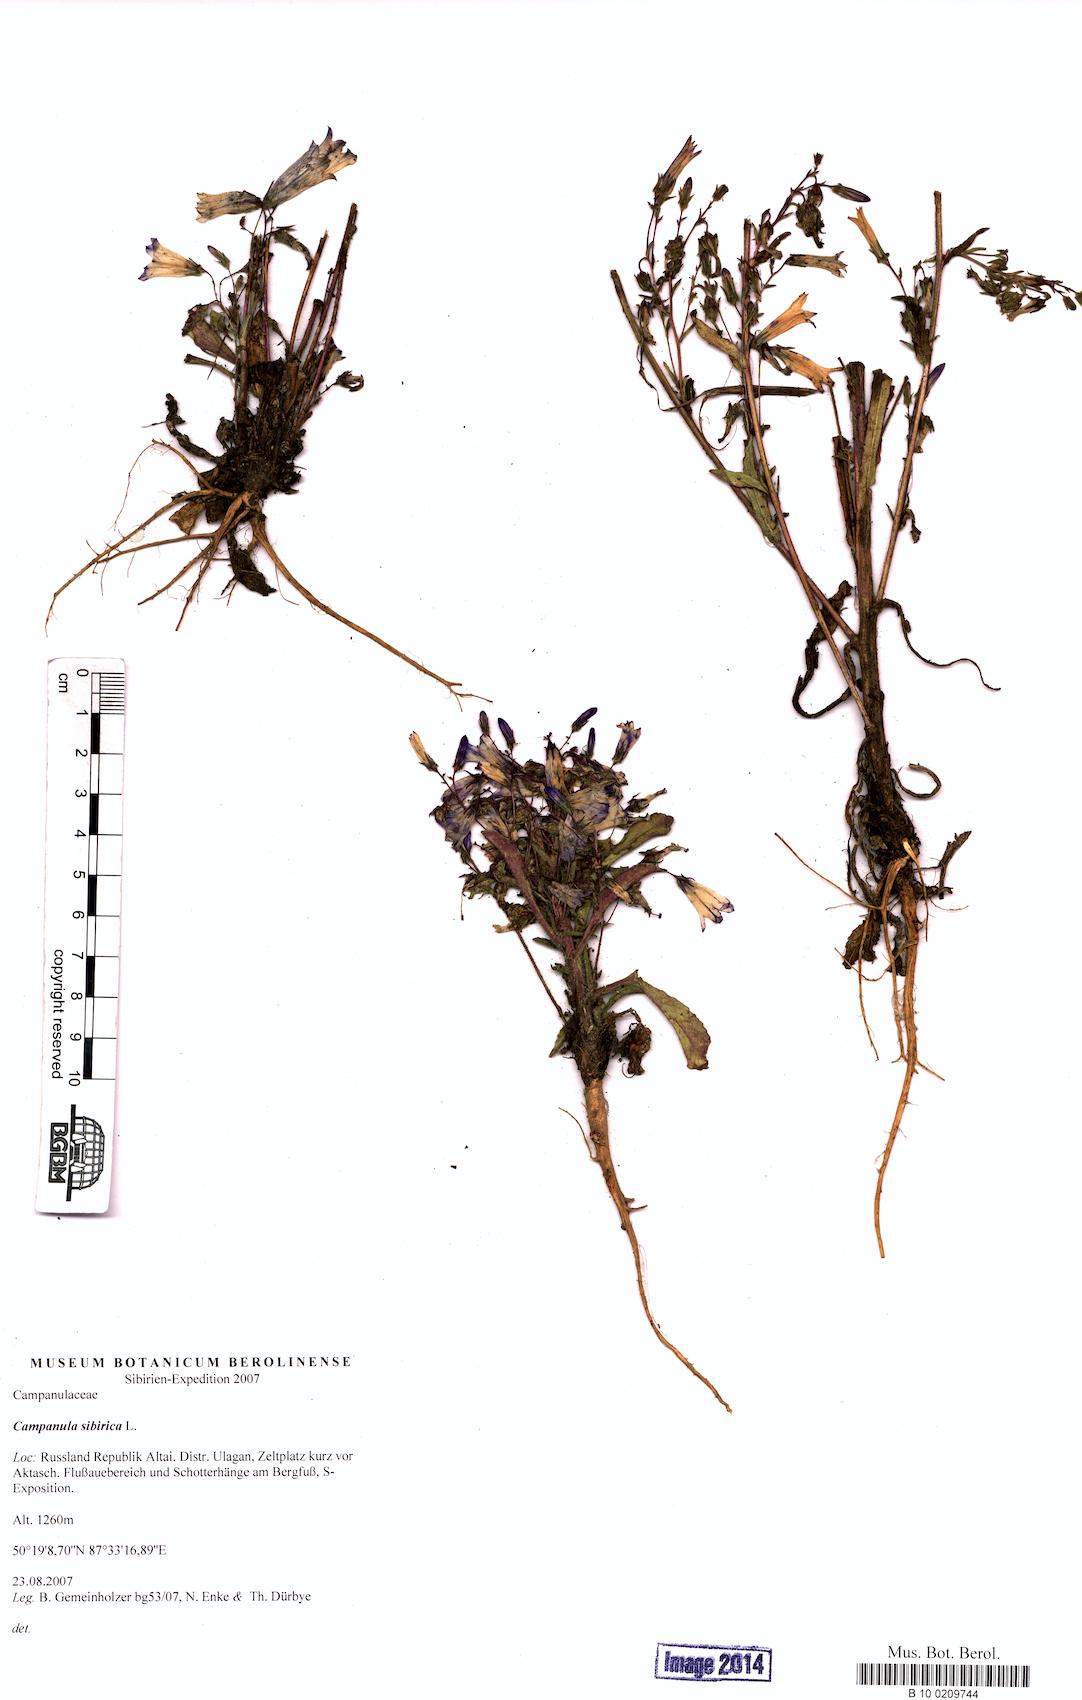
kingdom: Plantae
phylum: Tracheophyta
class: Magnoliopsida
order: Asterales
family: Campanulaceae
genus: Campanula
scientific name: Campanula sibirica
